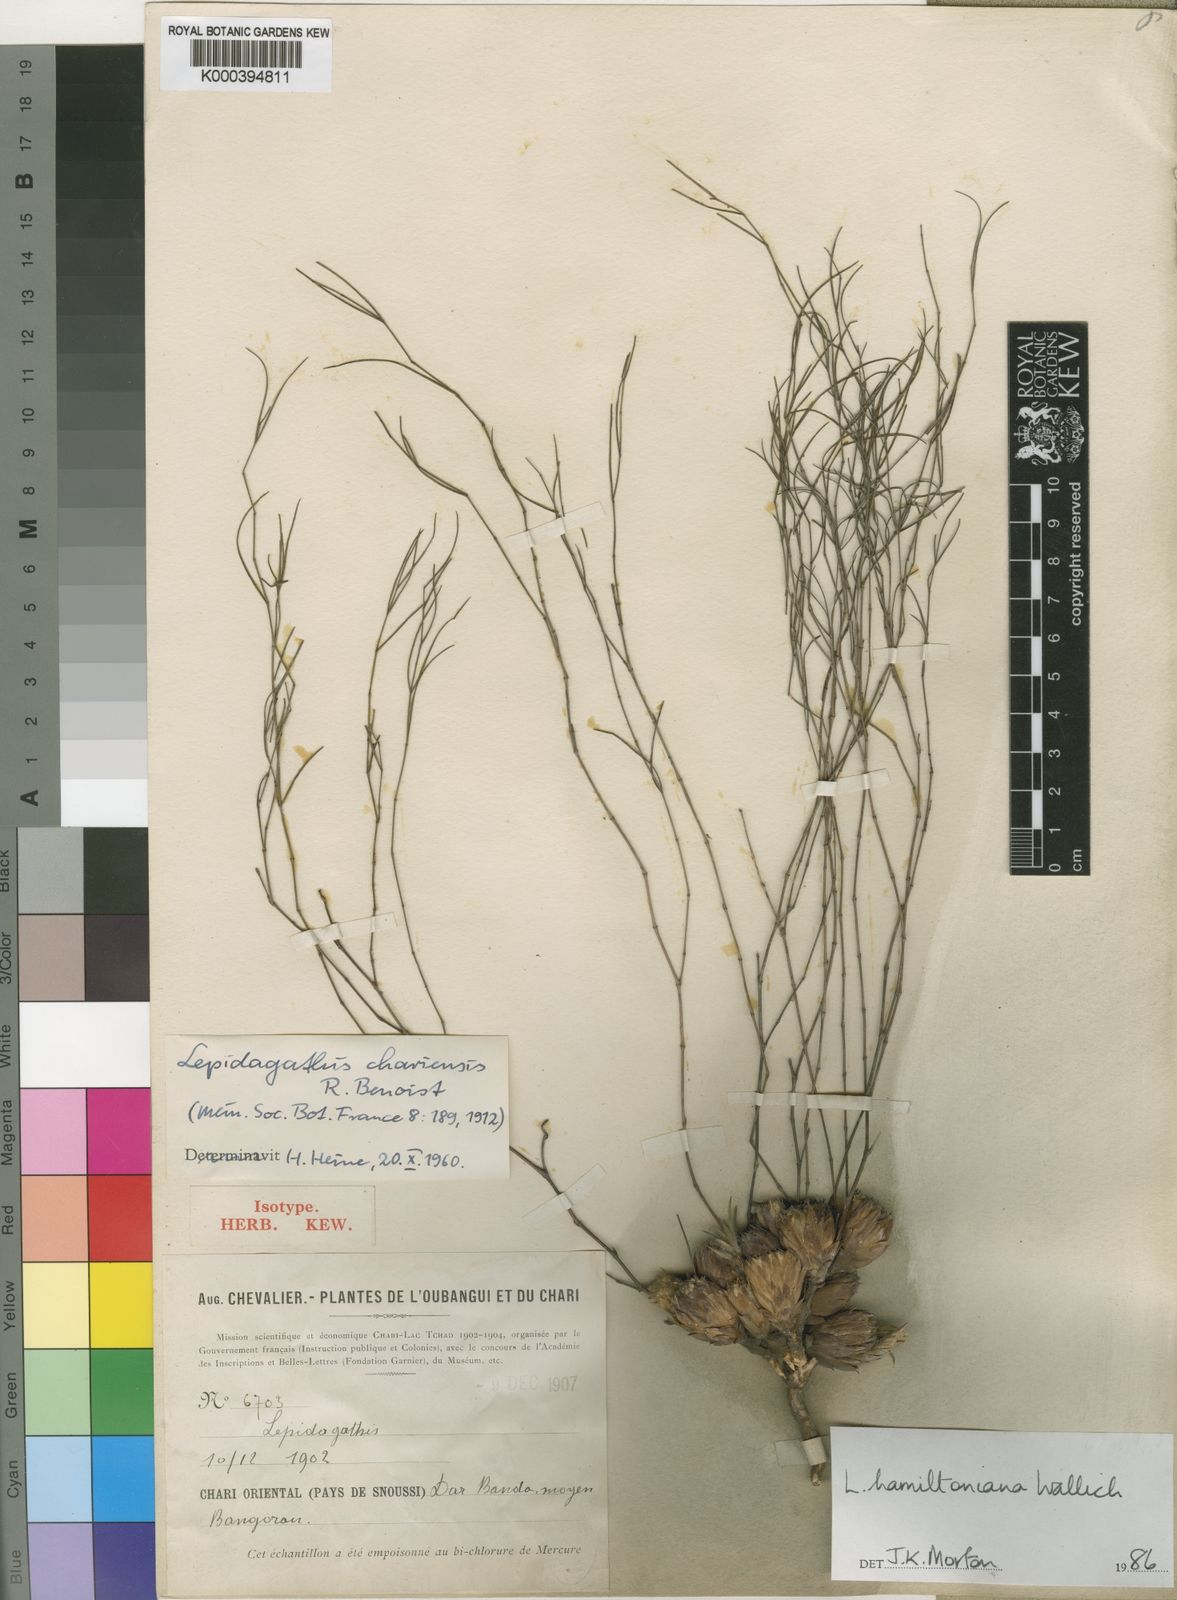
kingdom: Plantae
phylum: Tracheophyta
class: Magnoliopsida
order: Lamiales
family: Acanthaceae
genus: Lepidagathis
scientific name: Lepidagathis hamiltoniana
